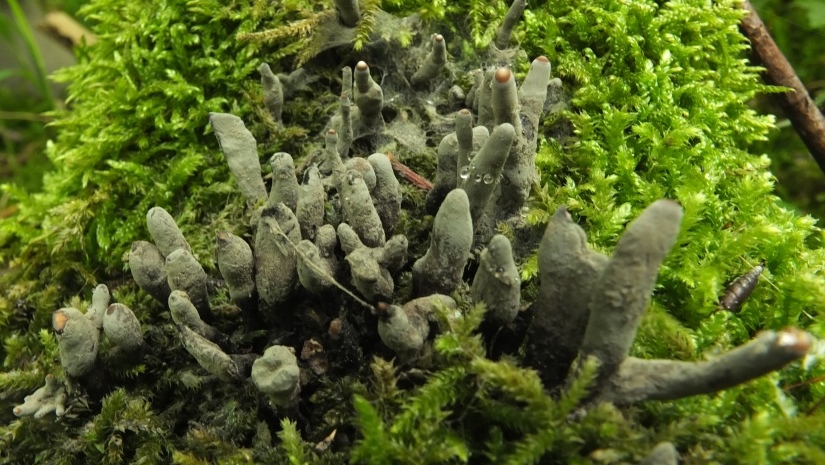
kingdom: Fungi
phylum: Ascomycota
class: Sordariomycetes
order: Xylariales
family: Xylariaceae
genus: Xylaria
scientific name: Xylaria longipes
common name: slank stødsvamp
